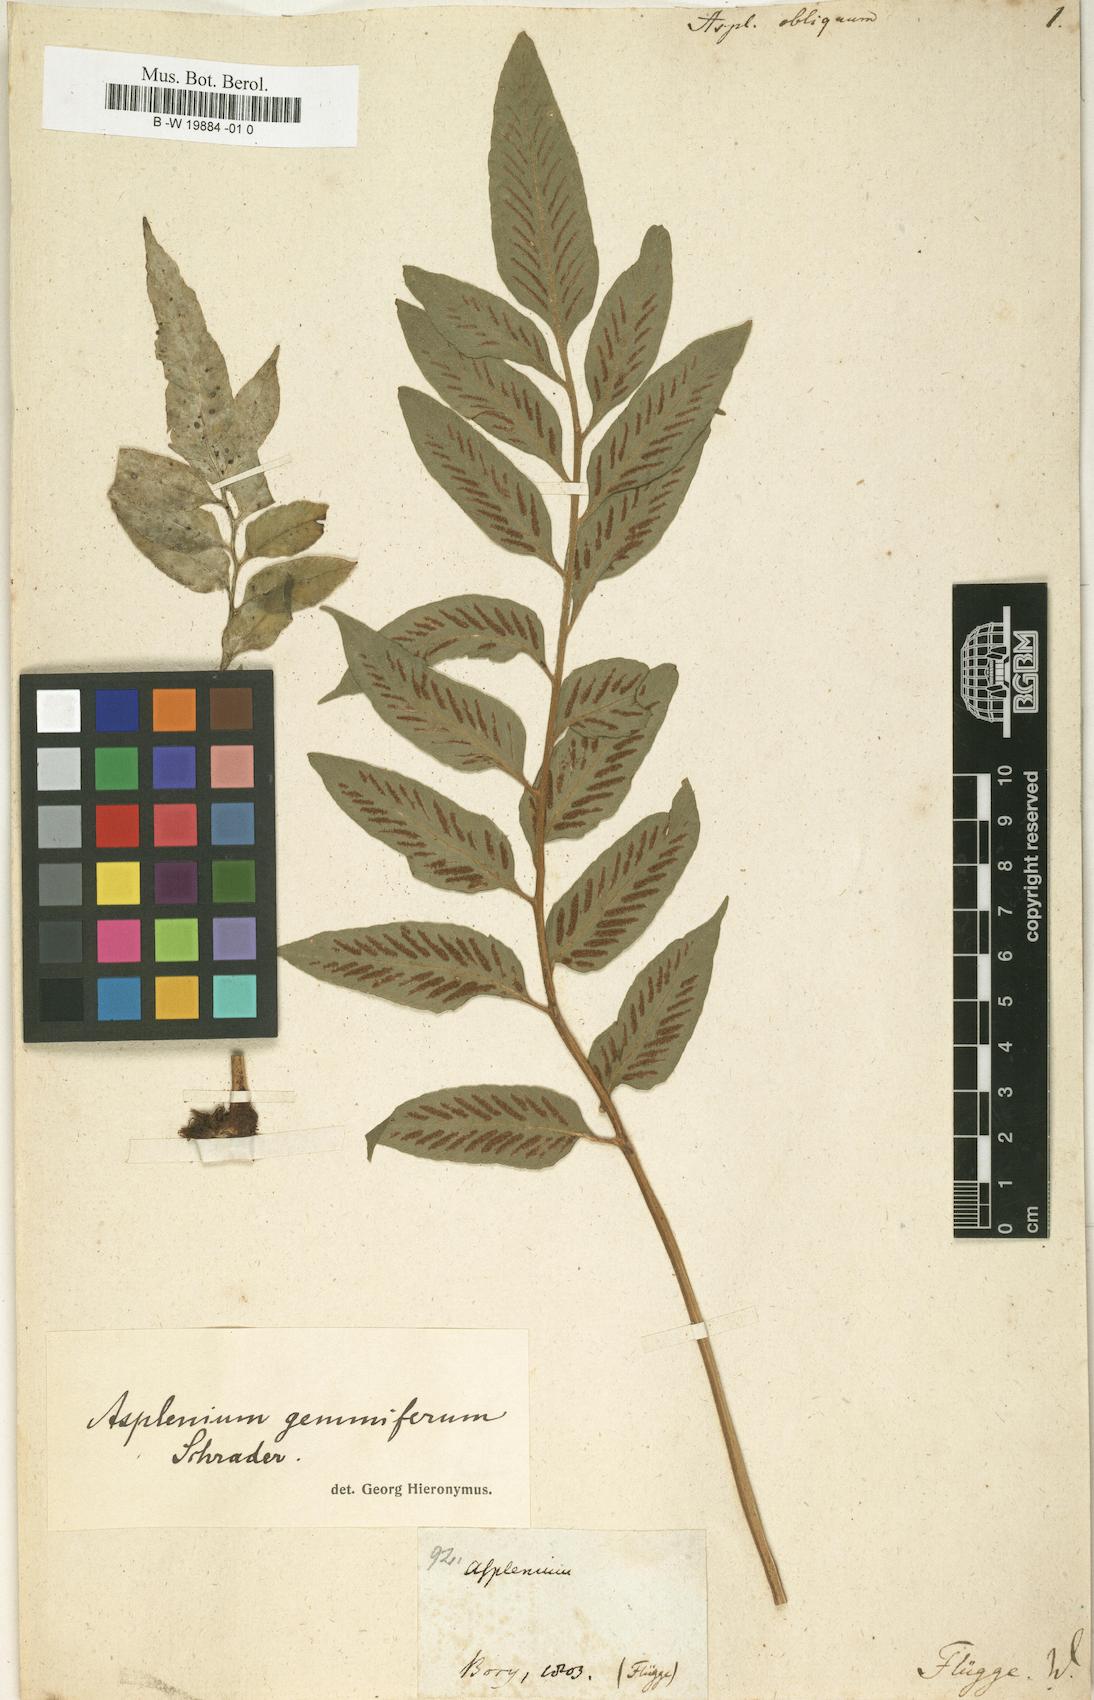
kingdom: Plantae
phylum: Tracheophyta
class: Polypodiopsida
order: Polypodiales
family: Aspleniaceae
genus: Asplenium
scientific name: Asplenium obliquum
